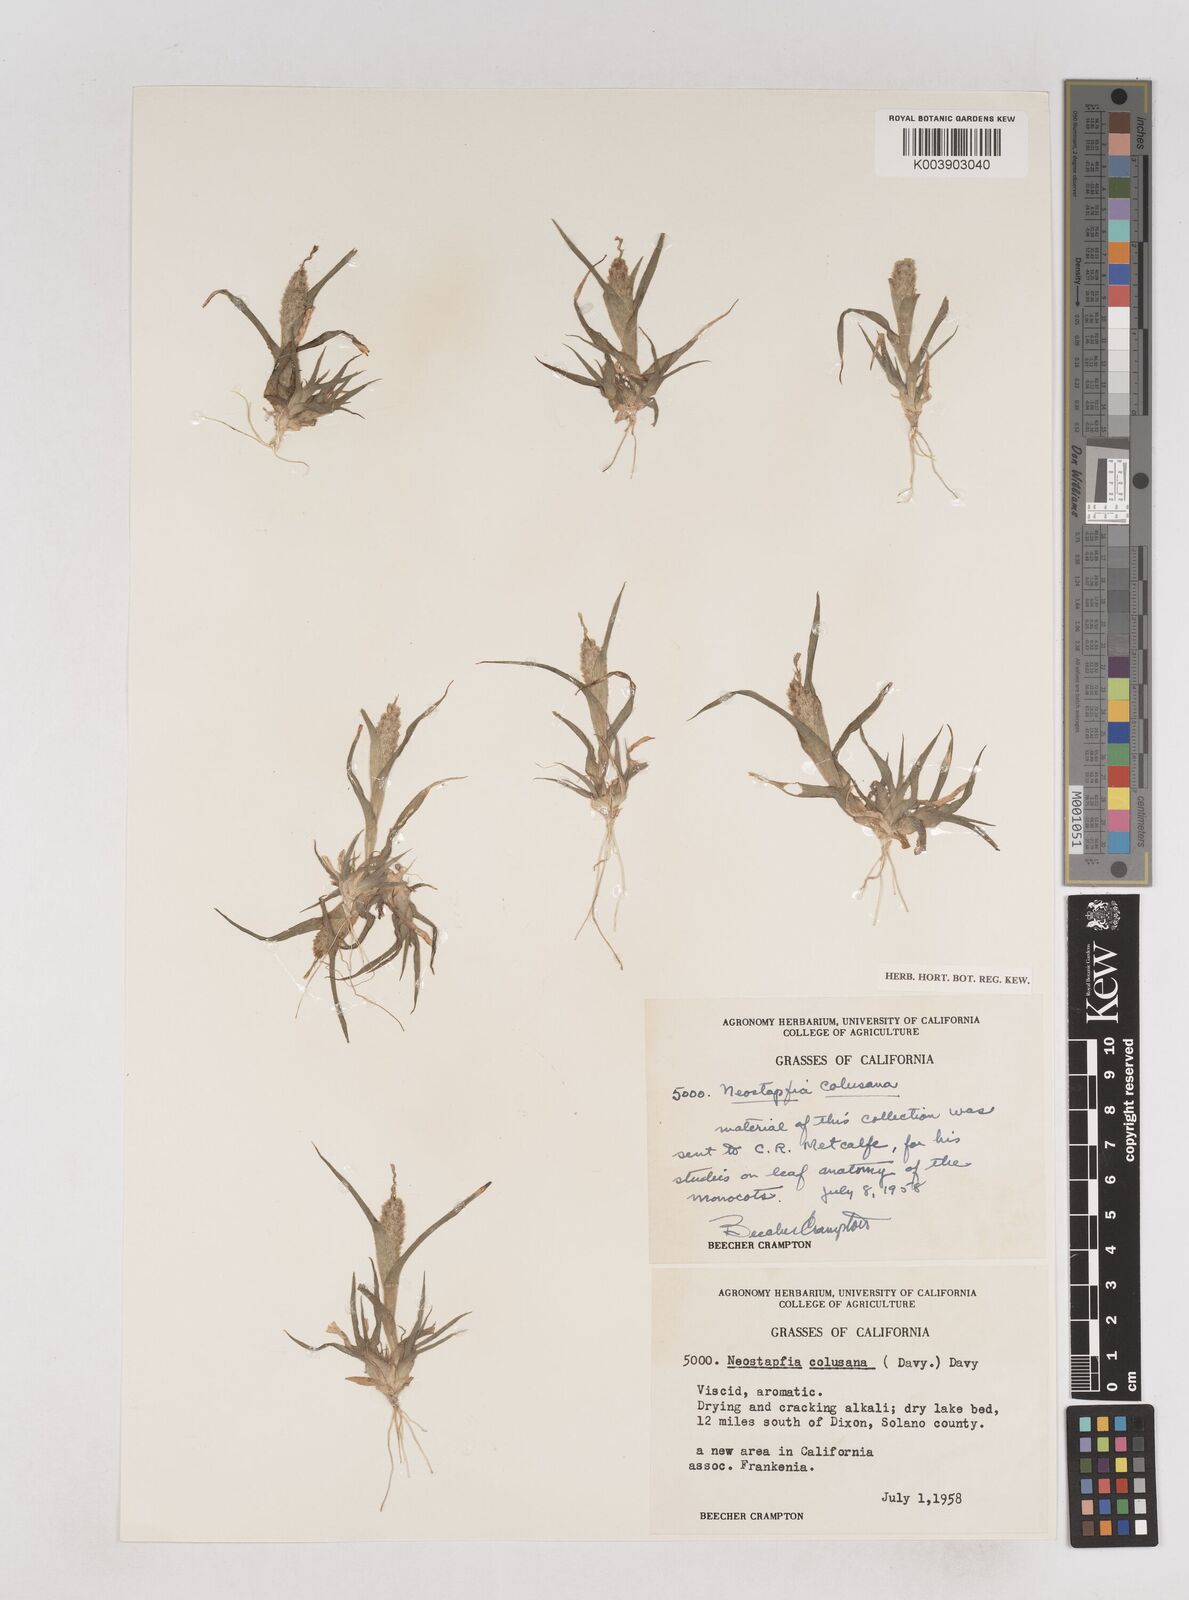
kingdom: Plantae
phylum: Tracheophyta
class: Liliopsida
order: Poales
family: Poaceae
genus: Neostapfia
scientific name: Neostapfia colusana
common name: Colusa grass
